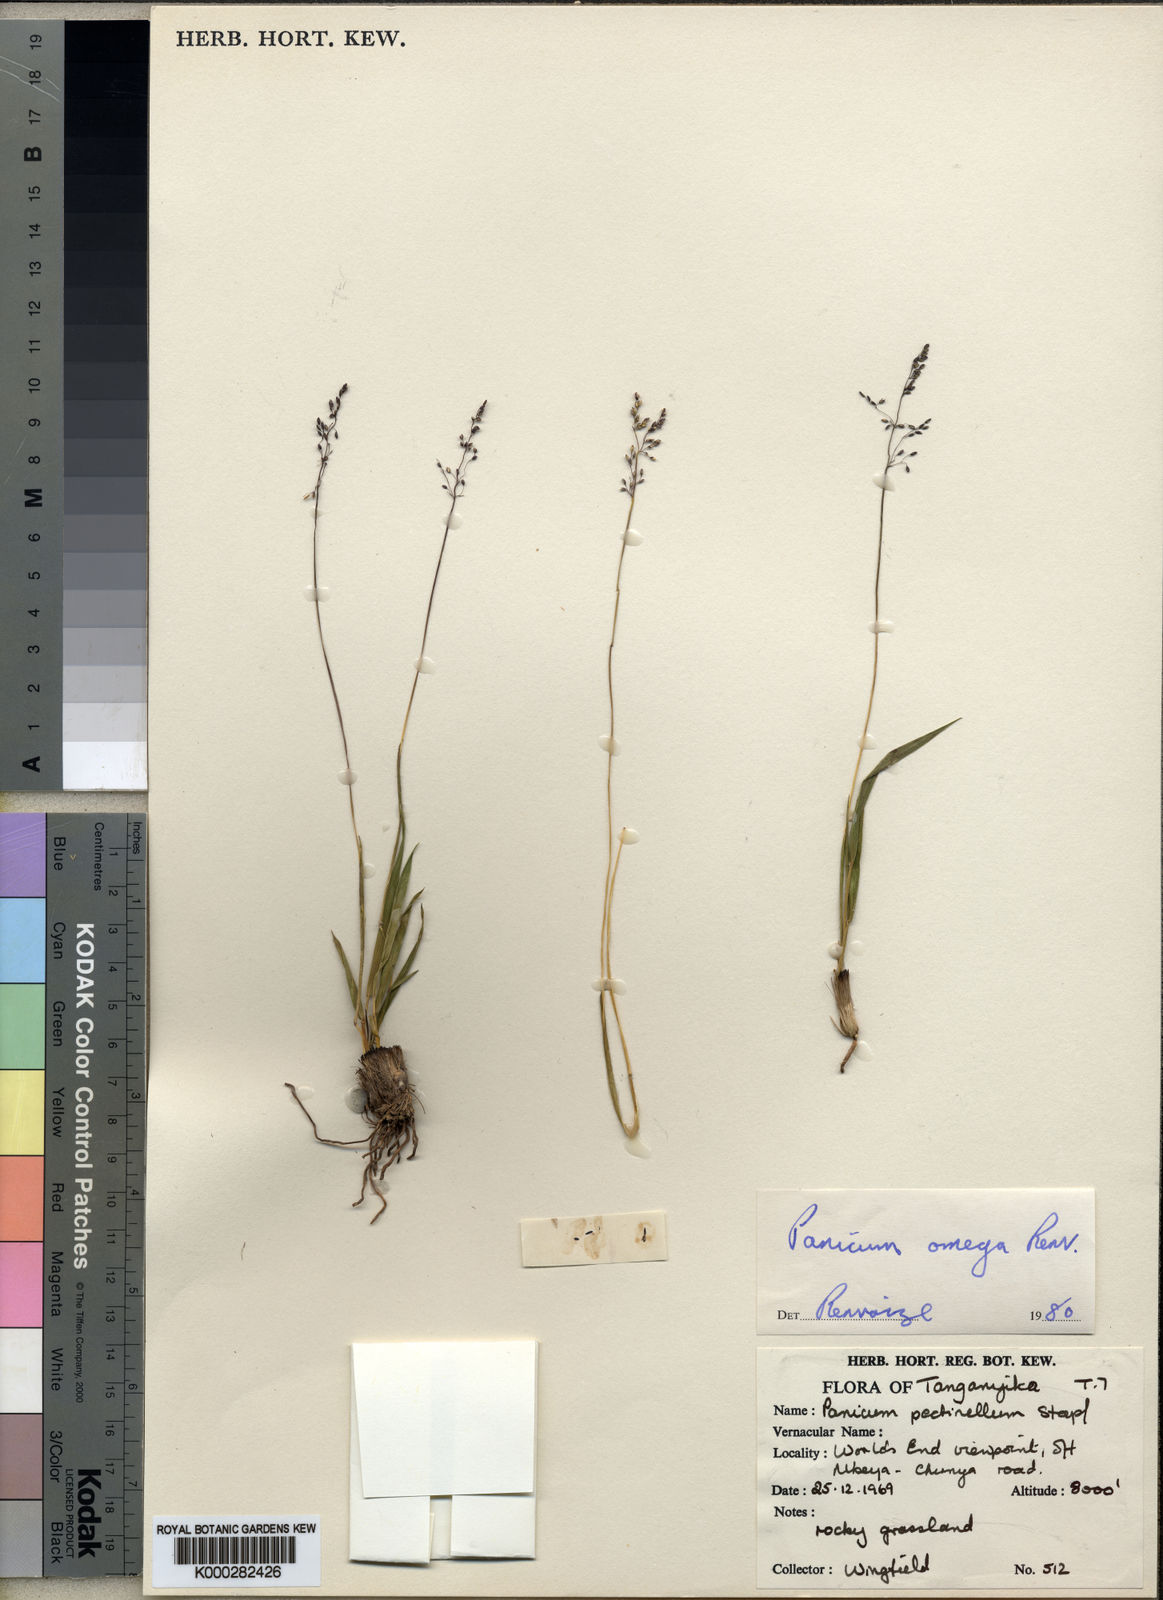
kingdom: Plantae
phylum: Tracheophyta
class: Liliopsida
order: Poales
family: Poaceae
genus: Adenochloa
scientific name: Adenochloa pectinella
